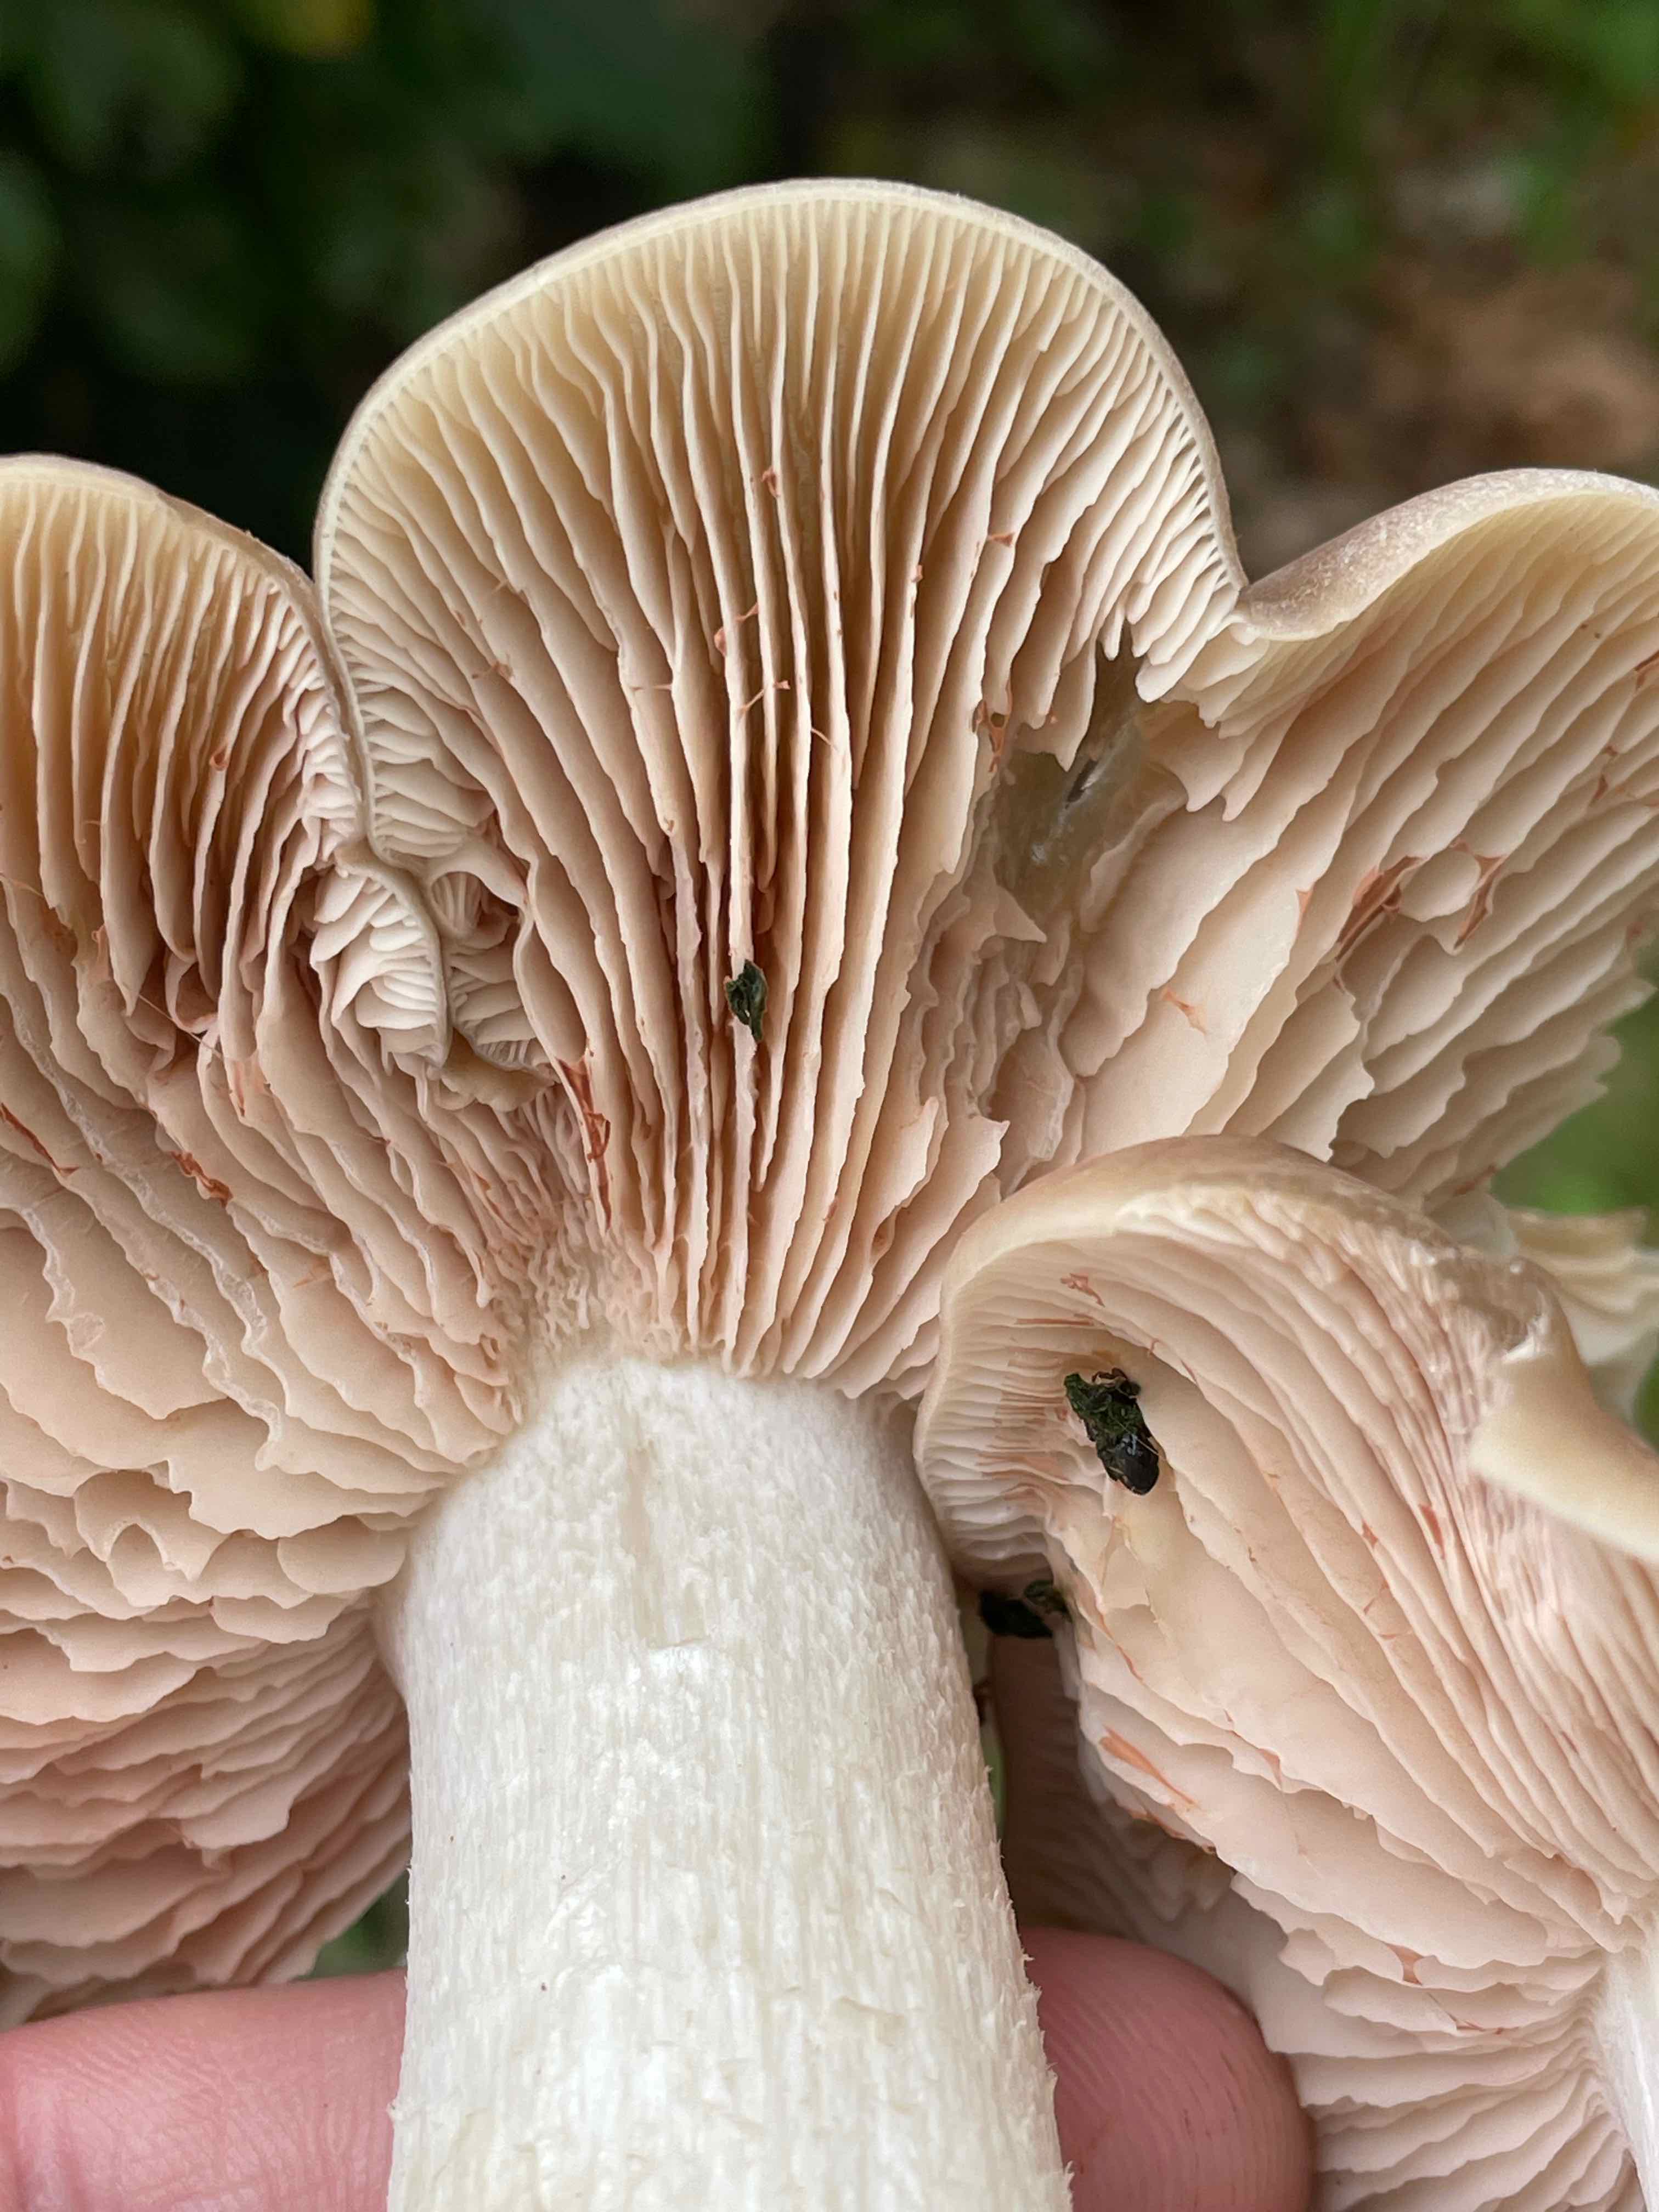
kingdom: Fungi
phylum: Basidiomycota
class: Agaricomycetes
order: Agaricales
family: Entolomataceae
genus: Entoloma
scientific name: Entoloma lividoalbum
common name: lysstokket rødblad
